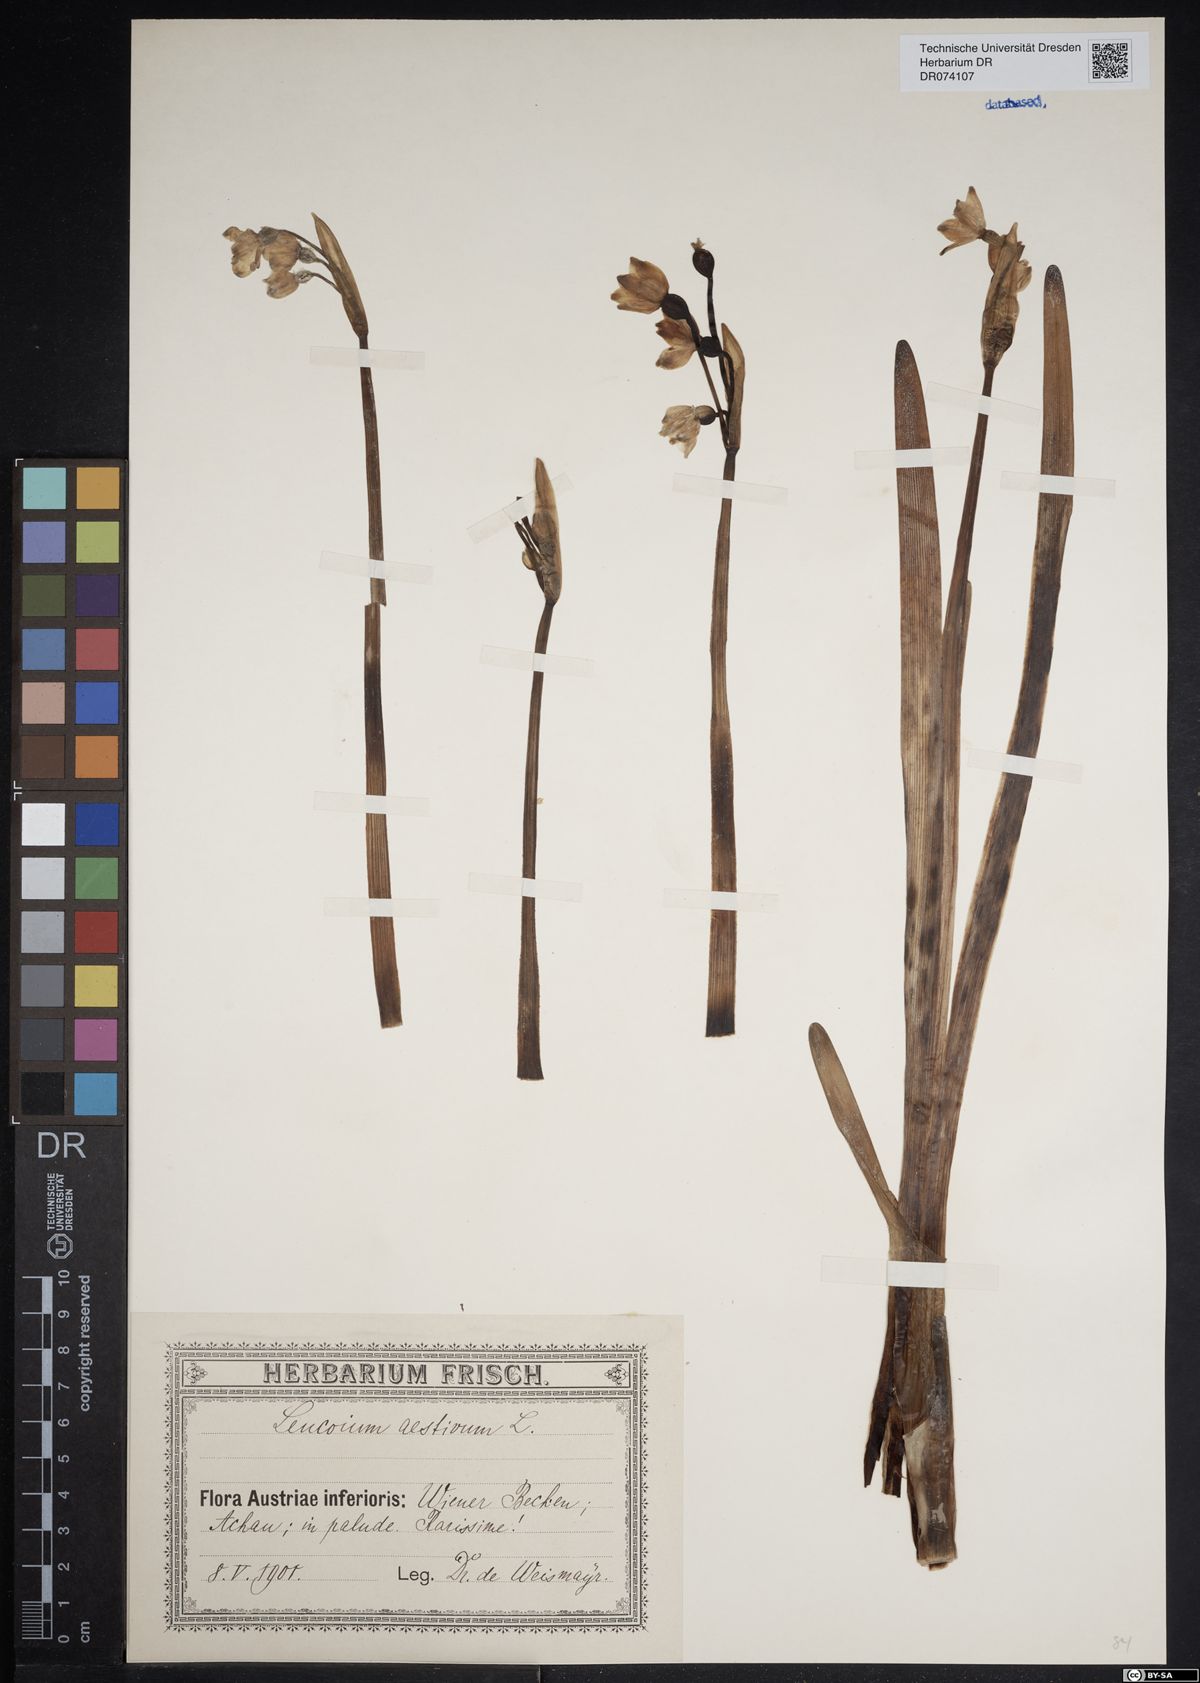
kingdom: Plantae
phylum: Tracheophyta
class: Liliopsida
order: Asparagales
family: Amaryllidaceae
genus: Leucojum
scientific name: Leucojum aestivum
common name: Summer snowflake
